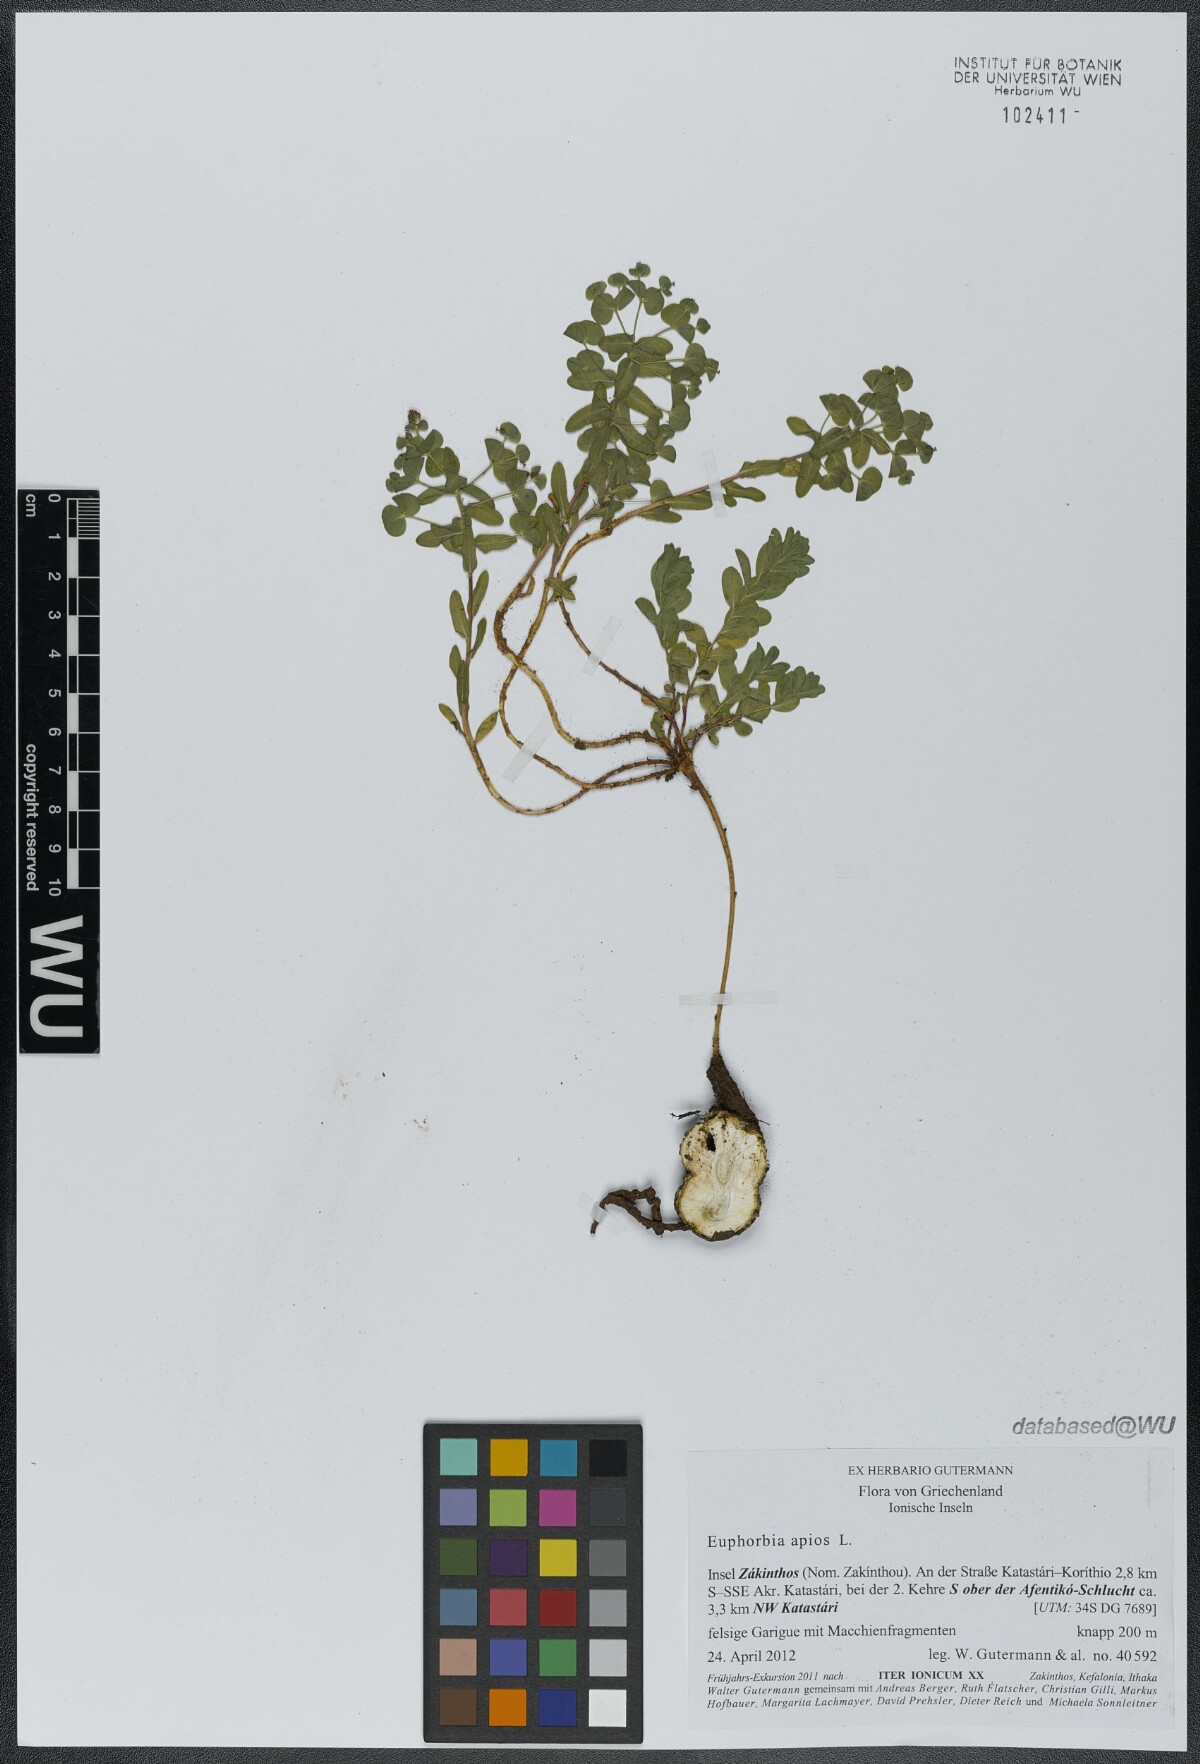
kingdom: Plantae
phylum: Tracheophyta
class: Magnoliopsida
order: Malpighiales
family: Euphorbiaceae
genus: Euphorbia
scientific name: Euphorbia apios
